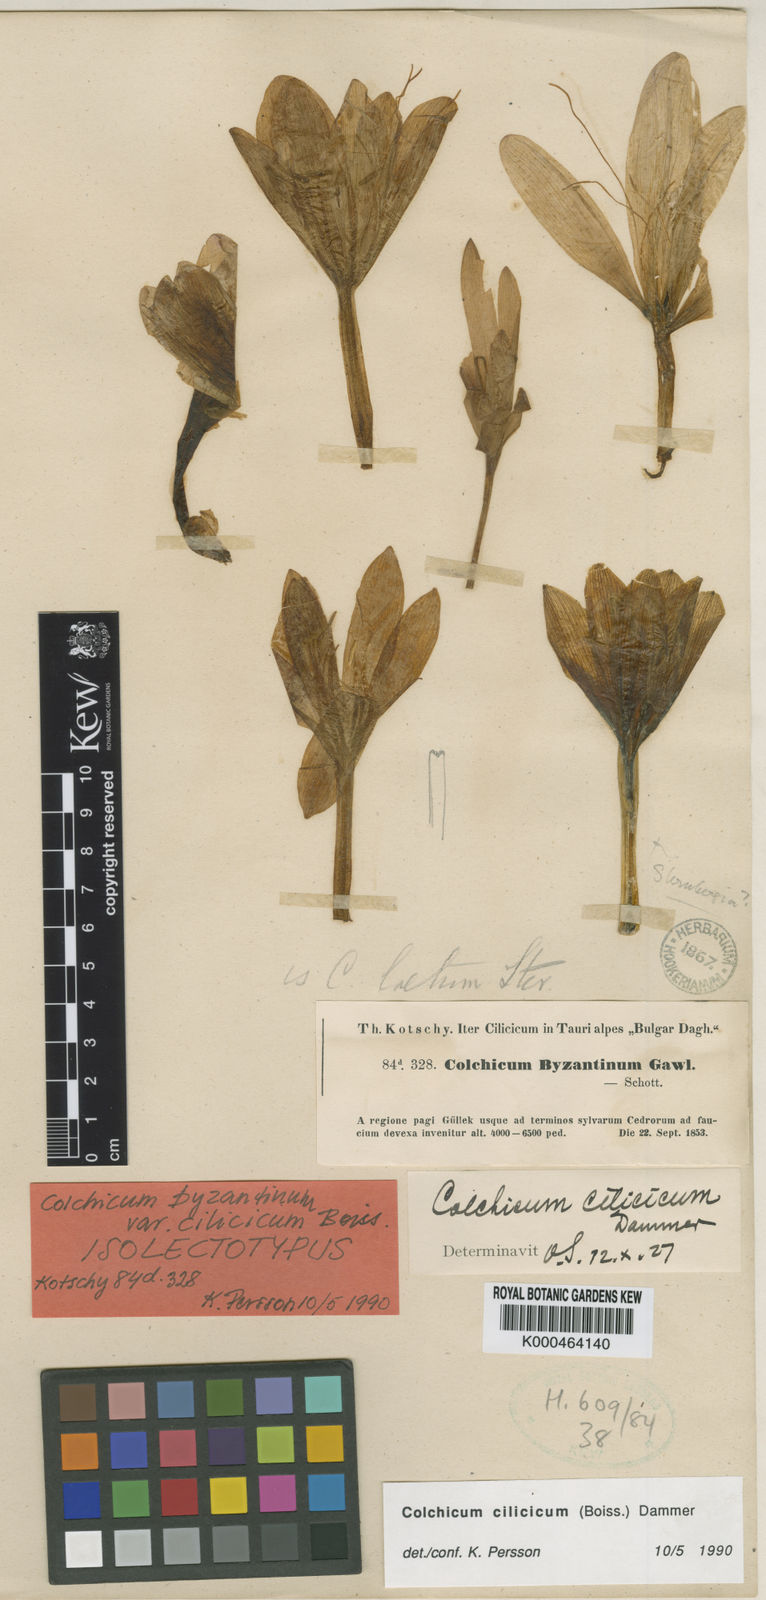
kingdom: Plantae
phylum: Tracheophyta
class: Liliopsida
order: Liliales
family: Colchicaceae
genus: Colchicum
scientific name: Colchicum cilicicum
